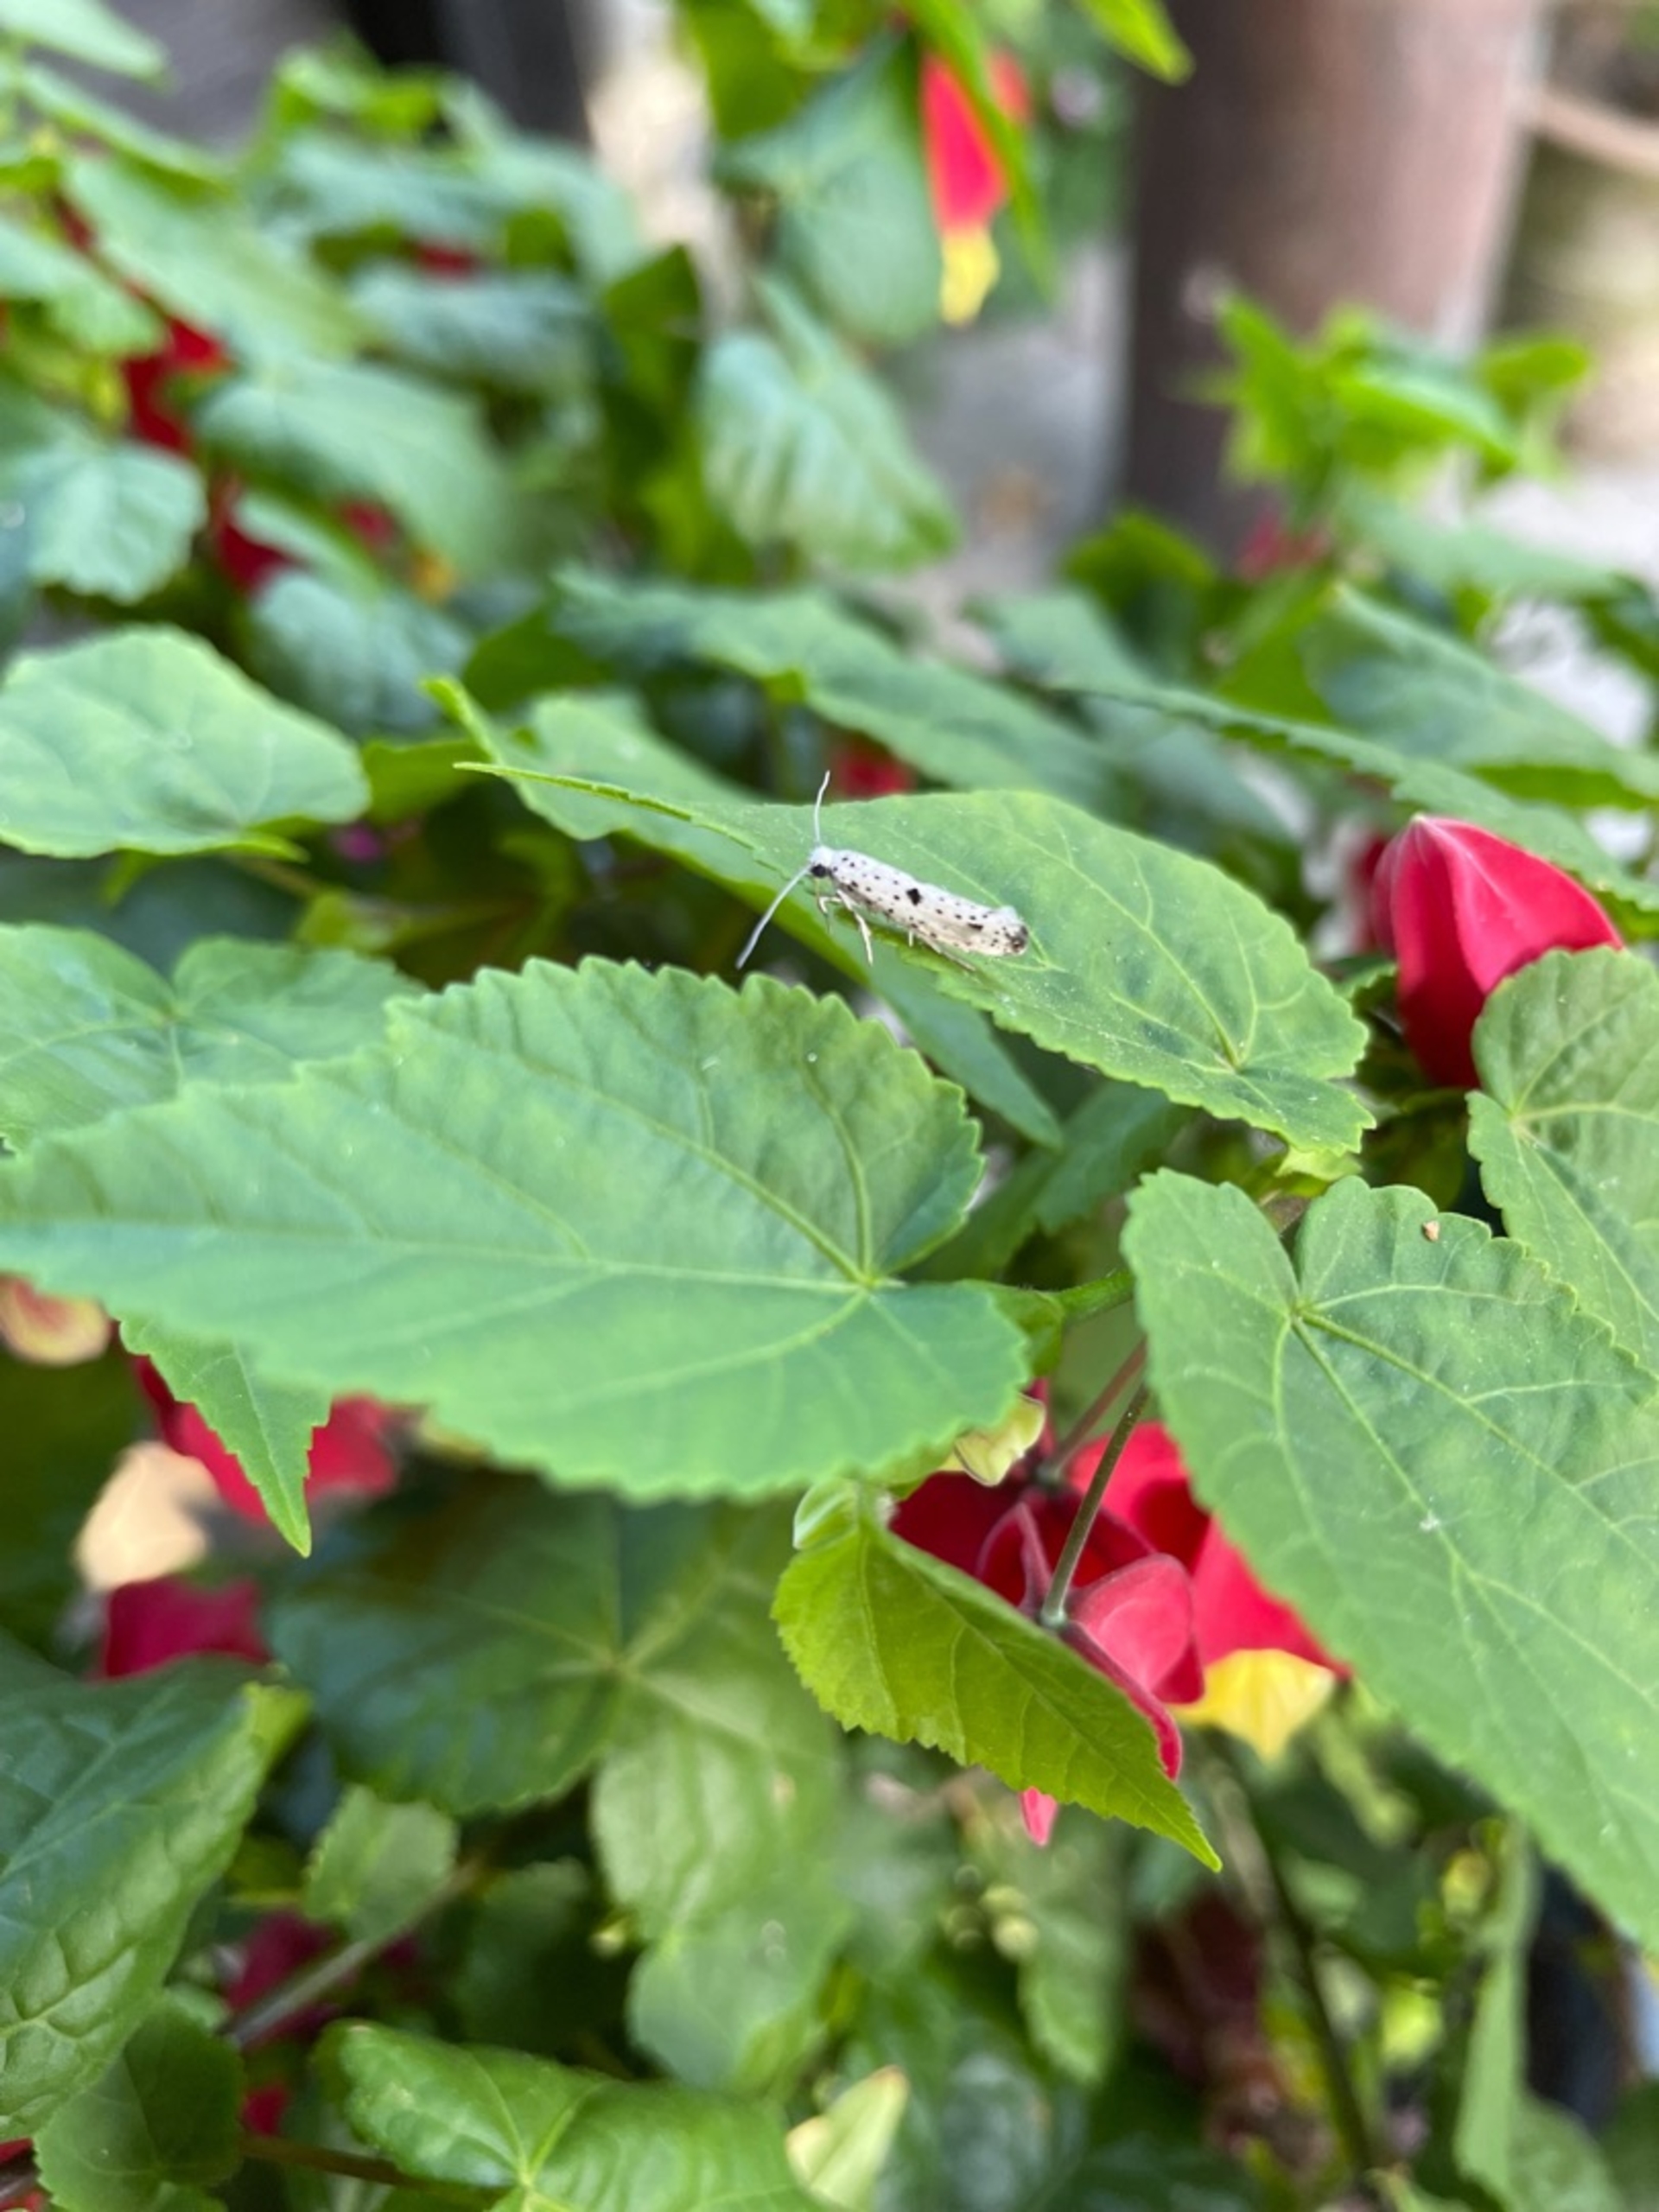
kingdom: Animalia
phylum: Arthropoda
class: Insecta
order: Lepidoptera
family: Yponomeutidae
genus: Yponomeuta
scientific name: Yponomeuta plumbella
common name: Sortspidset benvedspindemøl
